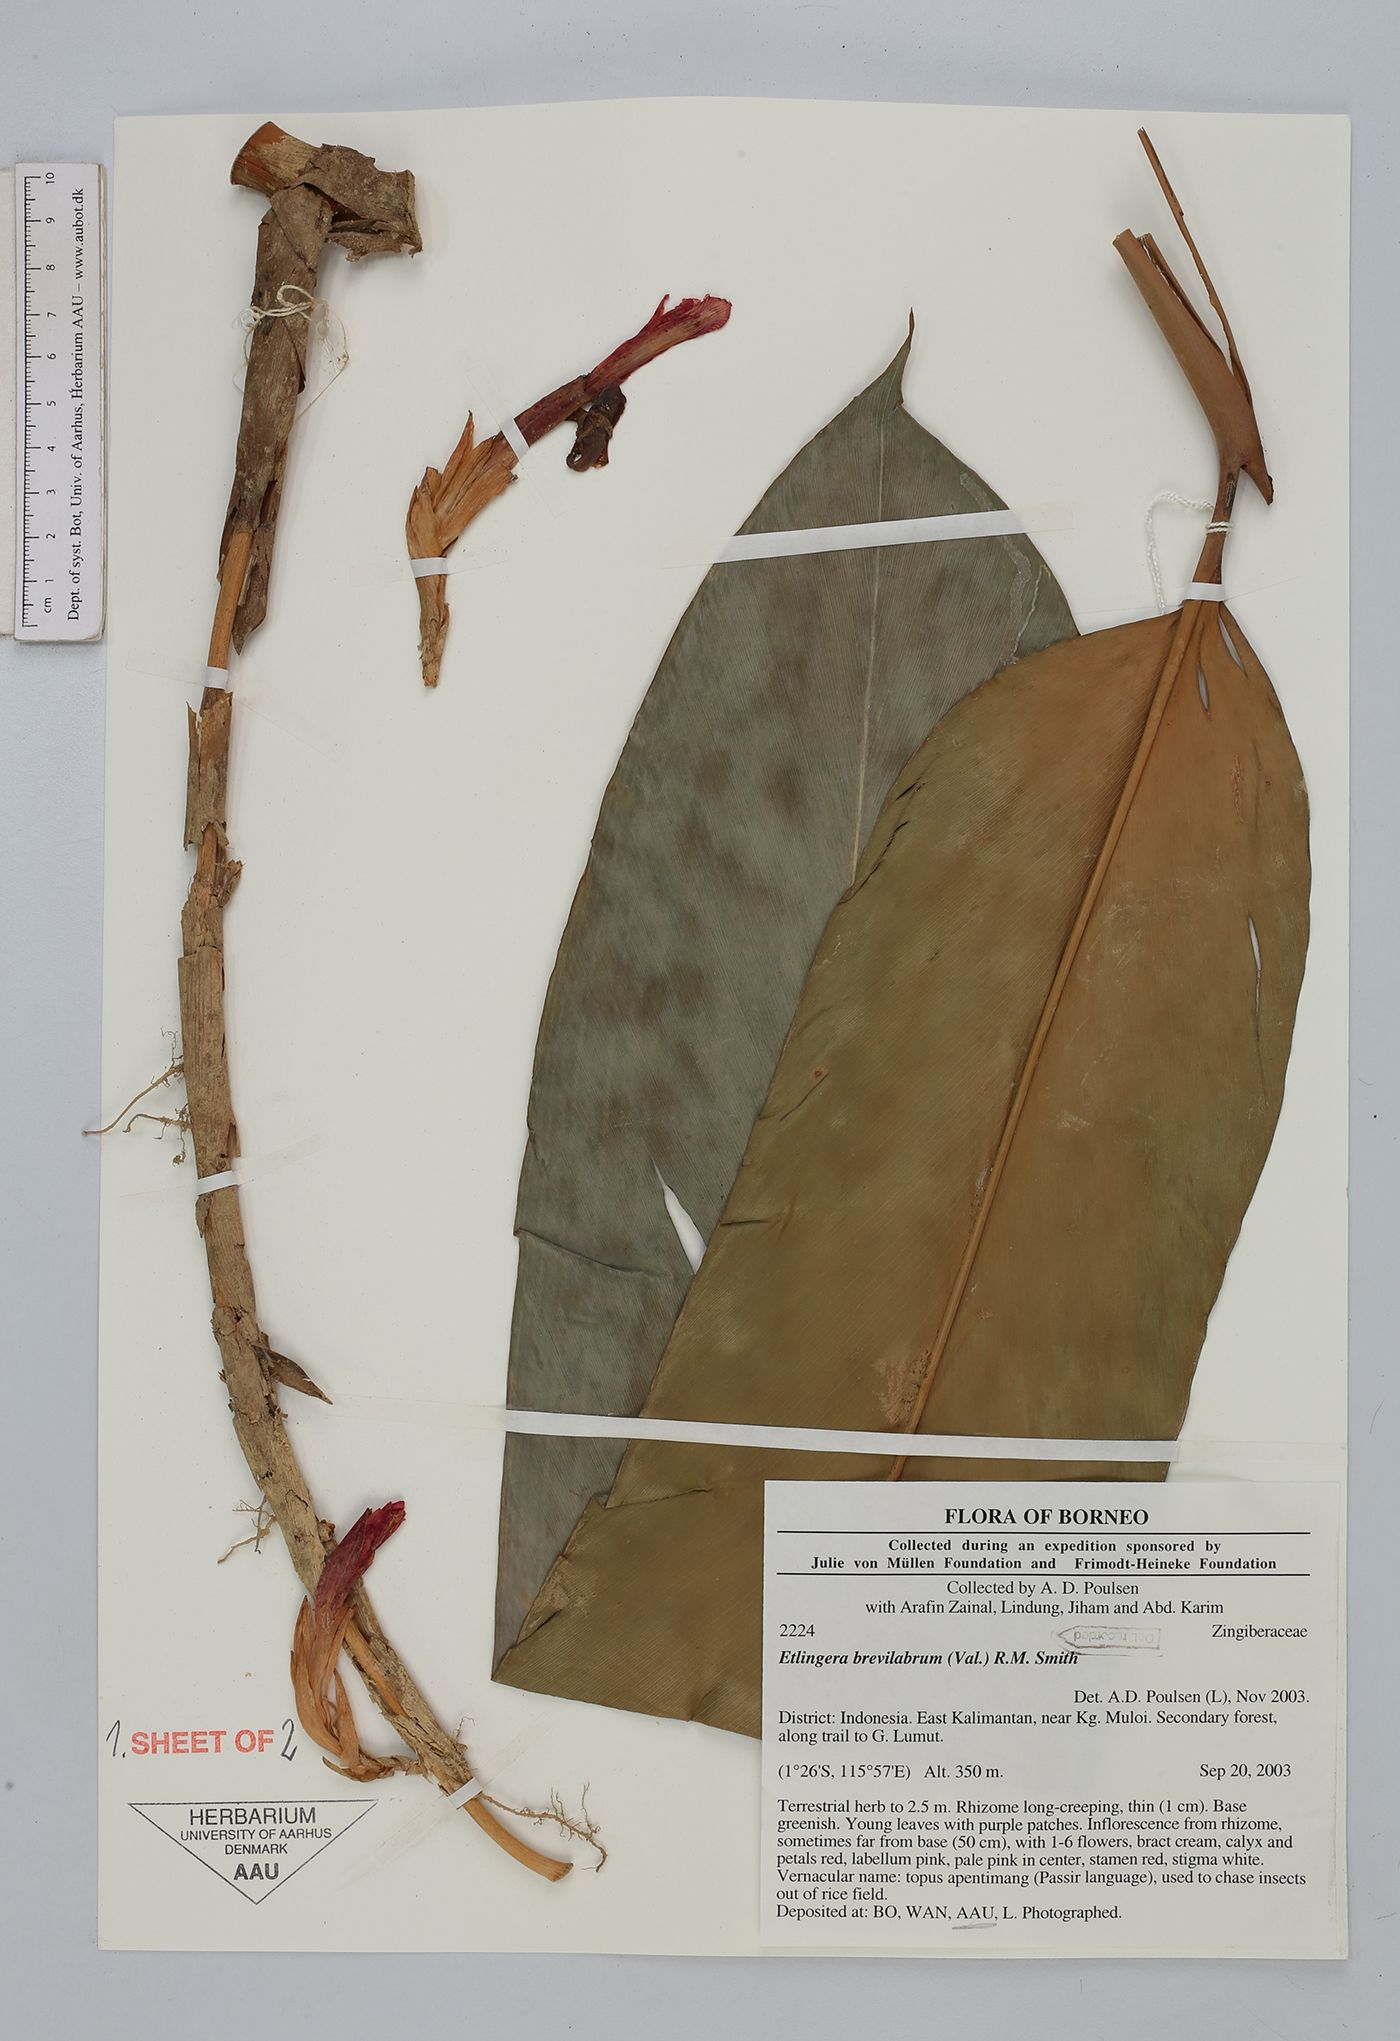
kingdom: Plantae
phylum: Tracheophyta
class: Liliopsida
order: Zingiberales
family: Zingiberaceae
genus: Etlingera
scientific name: Etlingera brevilabrum
